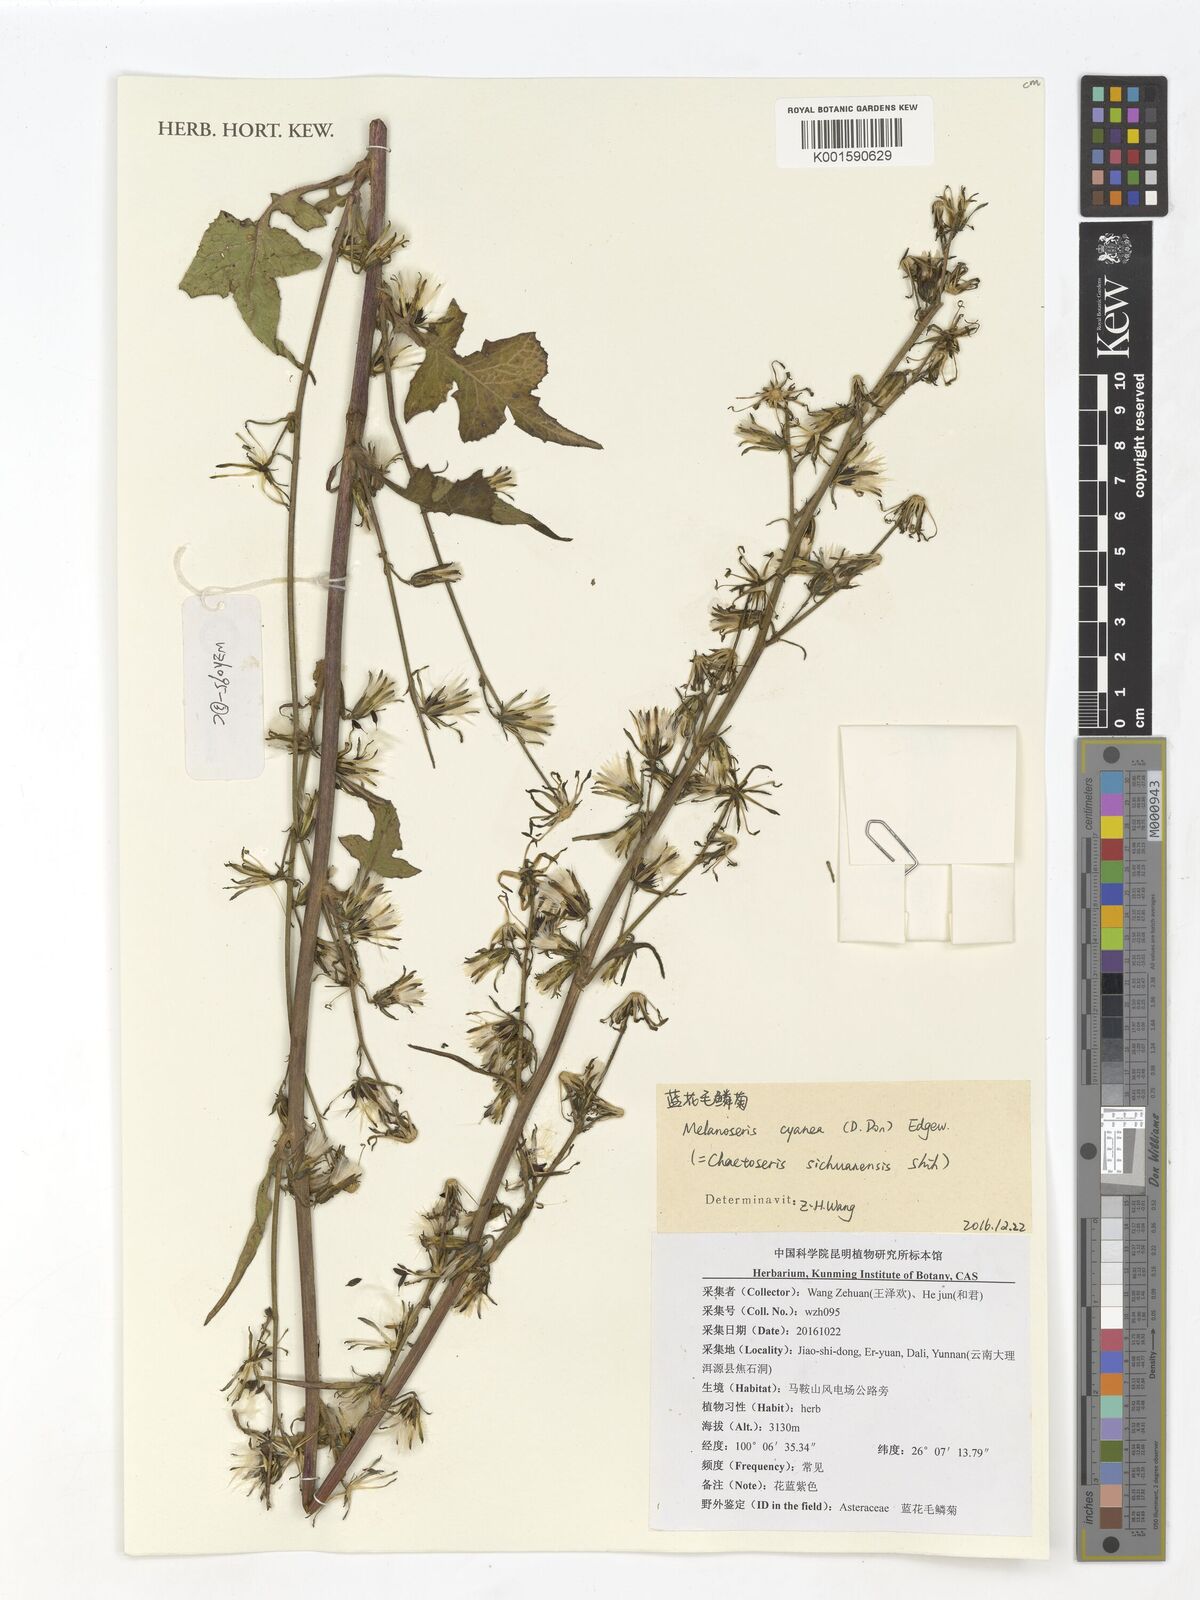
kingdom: Plantae
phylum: Tracheophyta
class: Magnoliopsida
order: Asterales
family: Asteraceae
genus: Melanoseris
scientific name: Melanoseris cyanea
